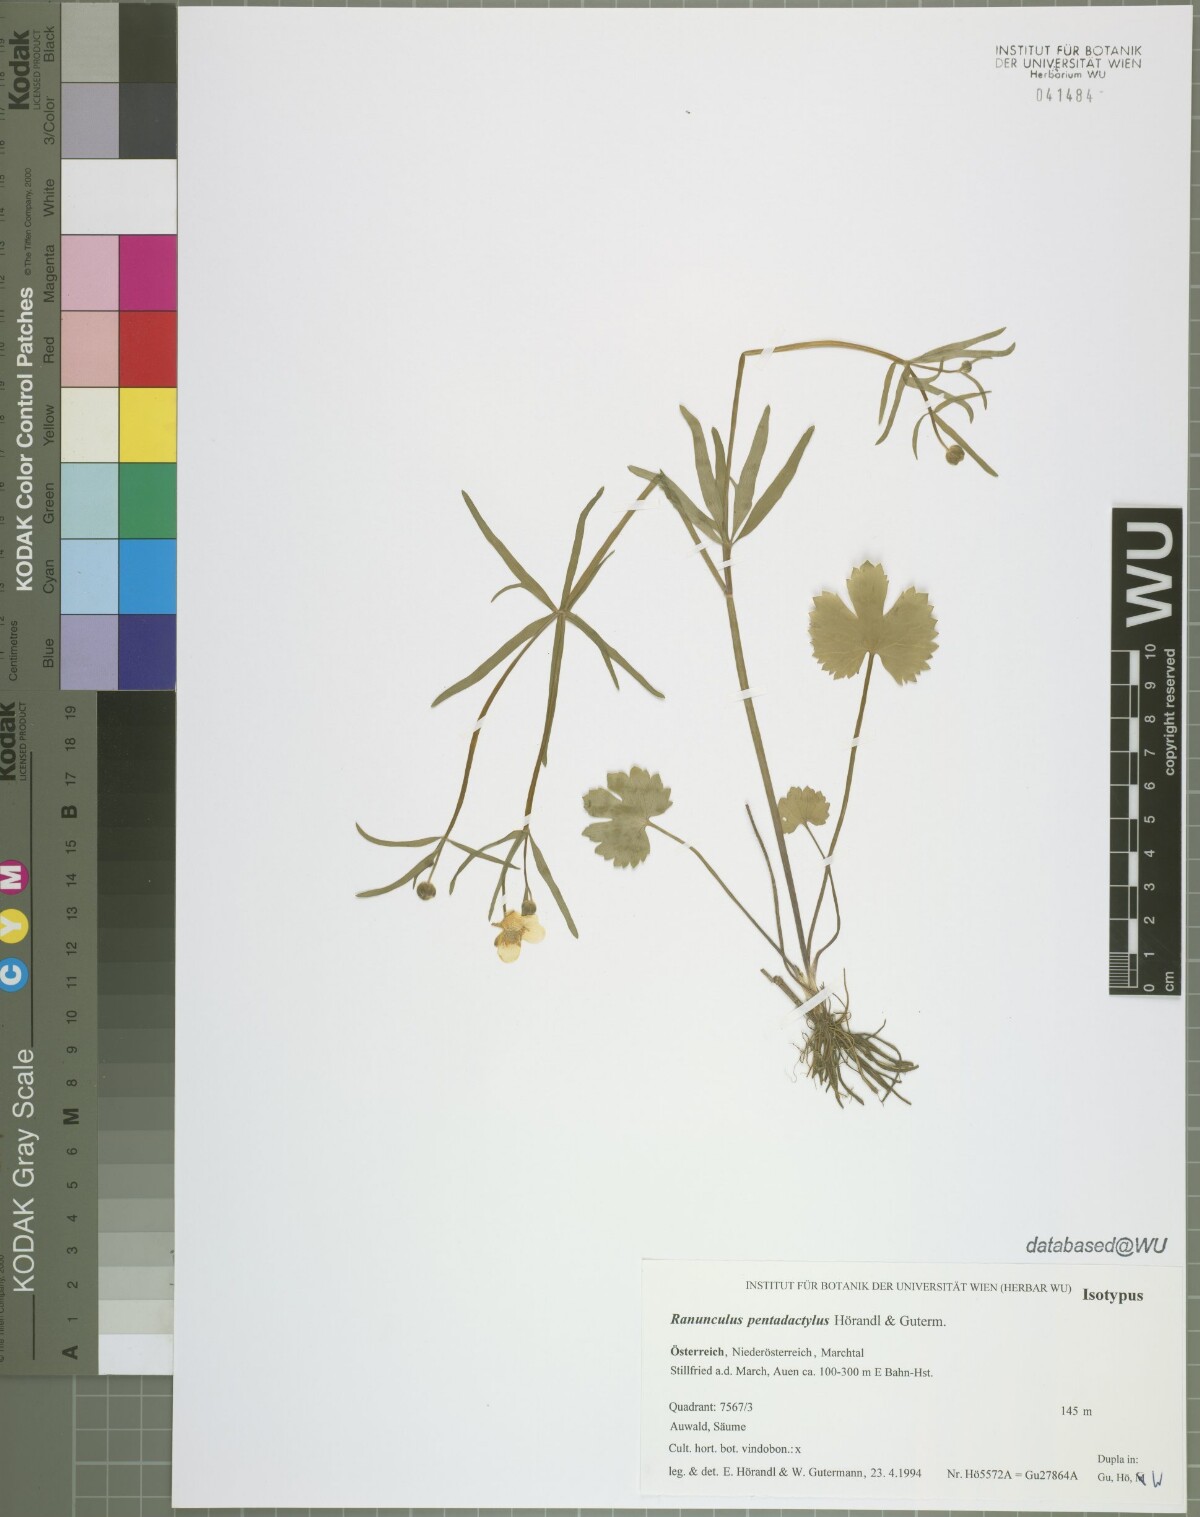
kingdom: Plantae
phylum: Tracheophyta
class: Magnoliopsida
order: Ranunculales
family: Ranunculaceae
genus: Ranunculus
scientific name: Ranunculus pentadactylus
